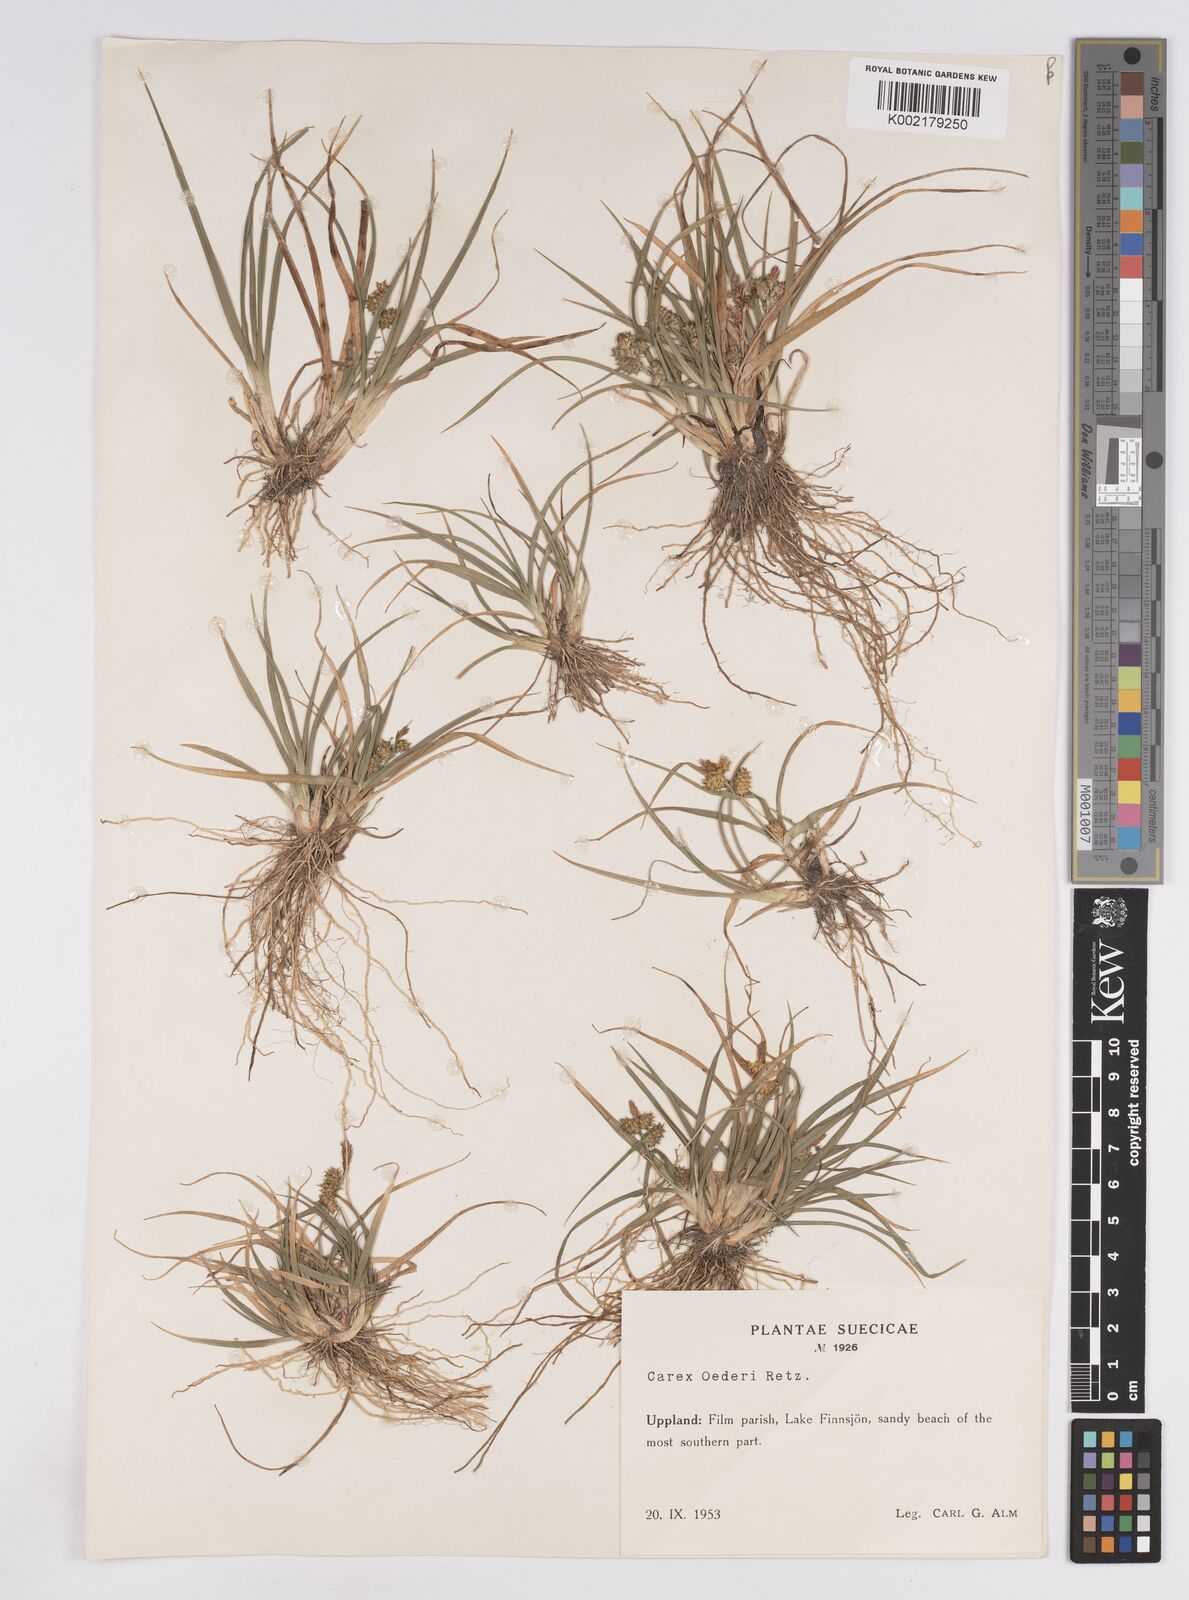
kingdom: Plantae
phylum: Tracheophyta
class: Liliopsida
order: Poales
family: Cyperaceae
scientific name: Cyperaceae
